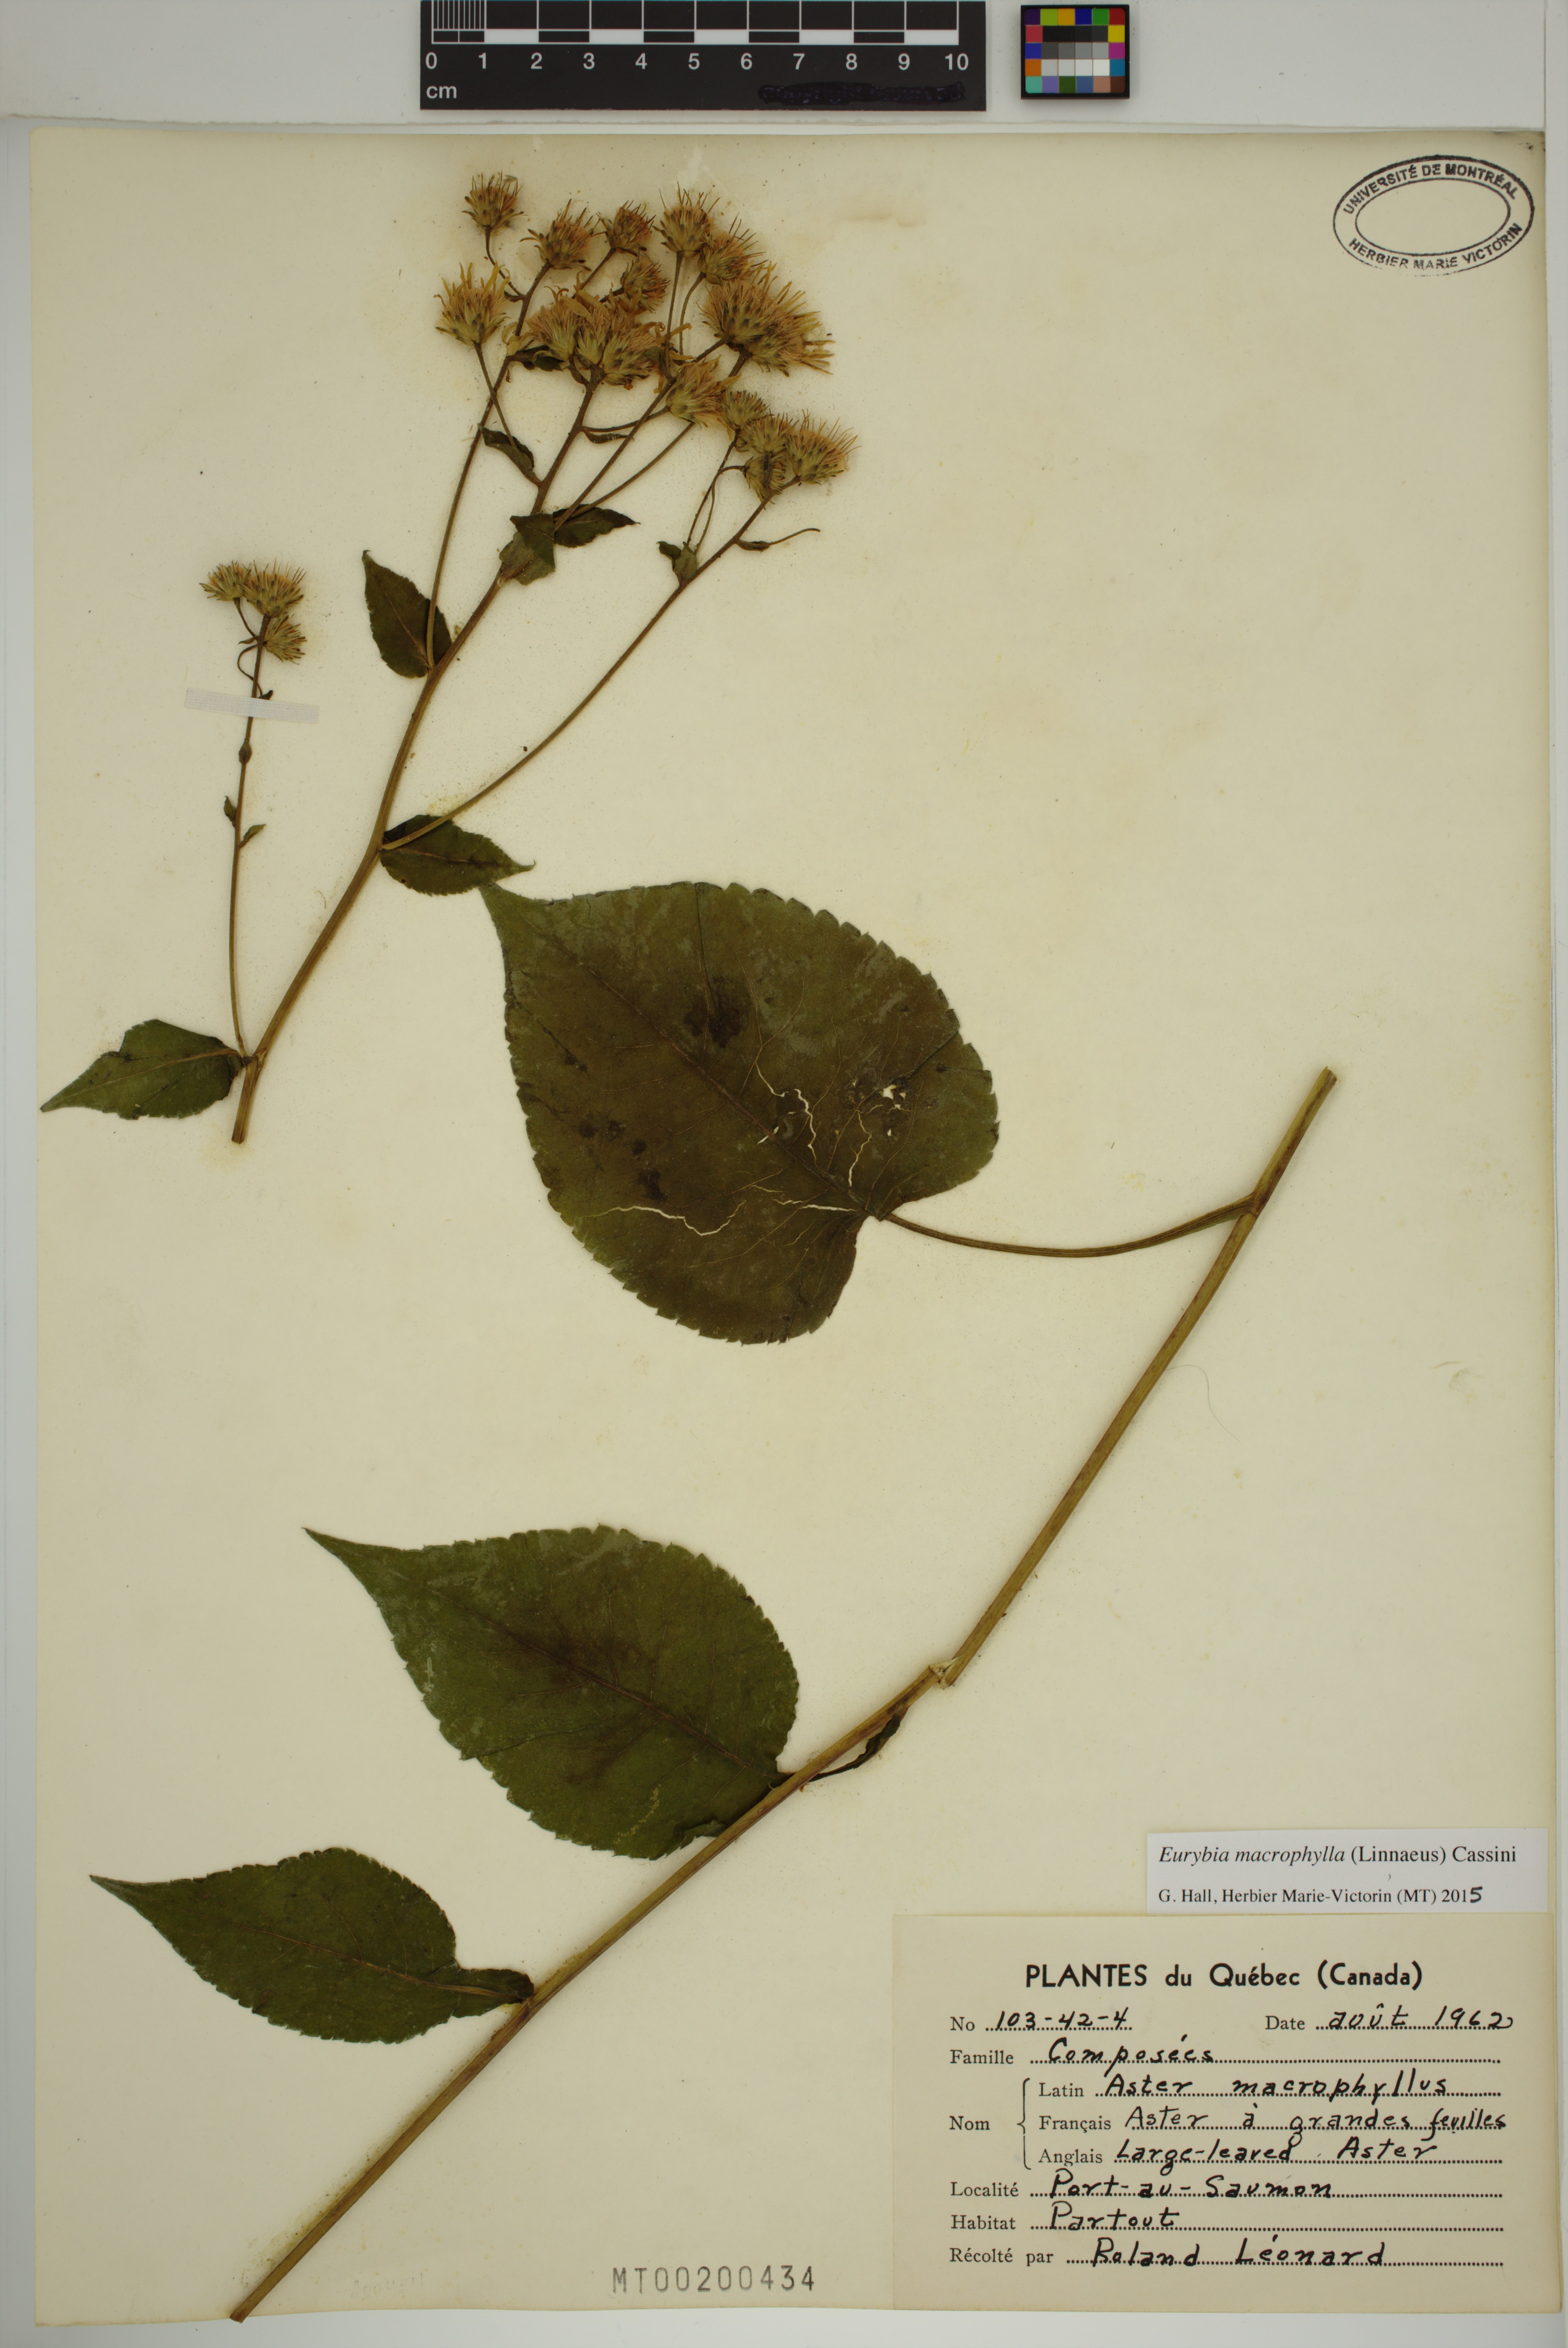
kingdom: Plantae
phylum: Tracheophyta
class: Magnoliopsida
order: Asterales
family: Asteraceae
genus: Eurybia
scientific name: Eurybia macrophylla
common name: Big-leaved aster
